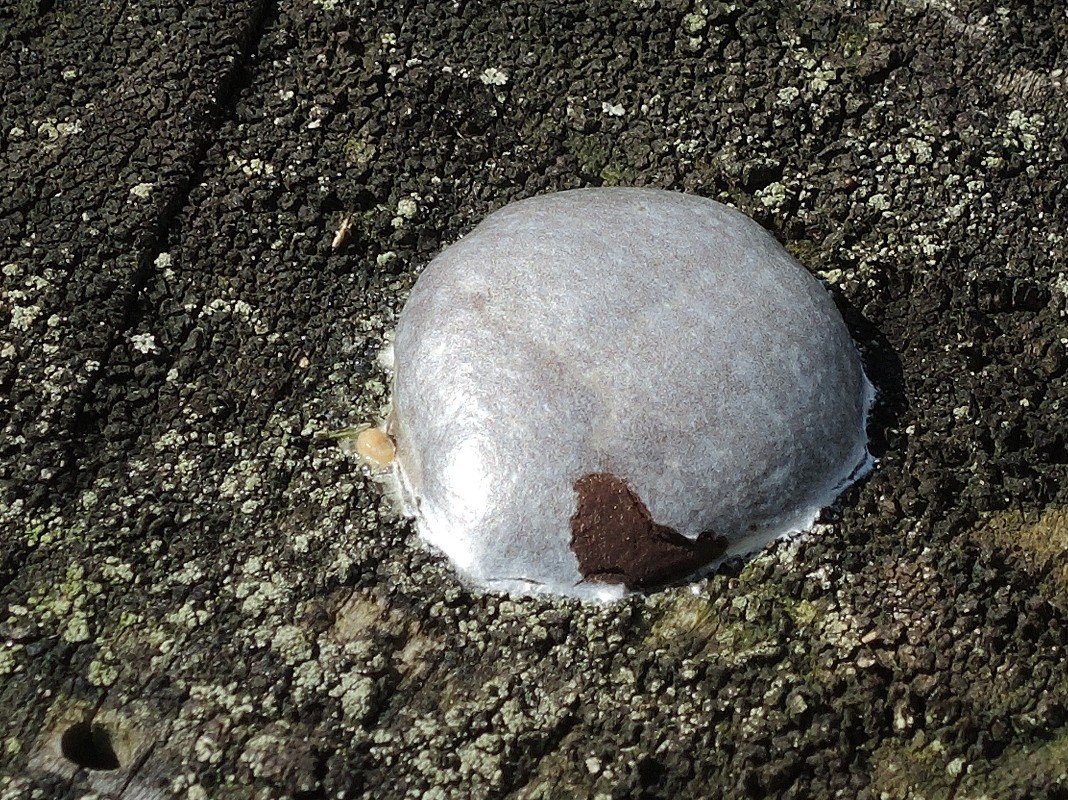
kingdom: Protozoa
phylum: Mycetozoa
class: Myxomycetes
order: Cribrariales
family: Tubiferaceae
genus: Reticularia
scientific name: Reticularia lycoperdon
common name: skinnende støvpude
